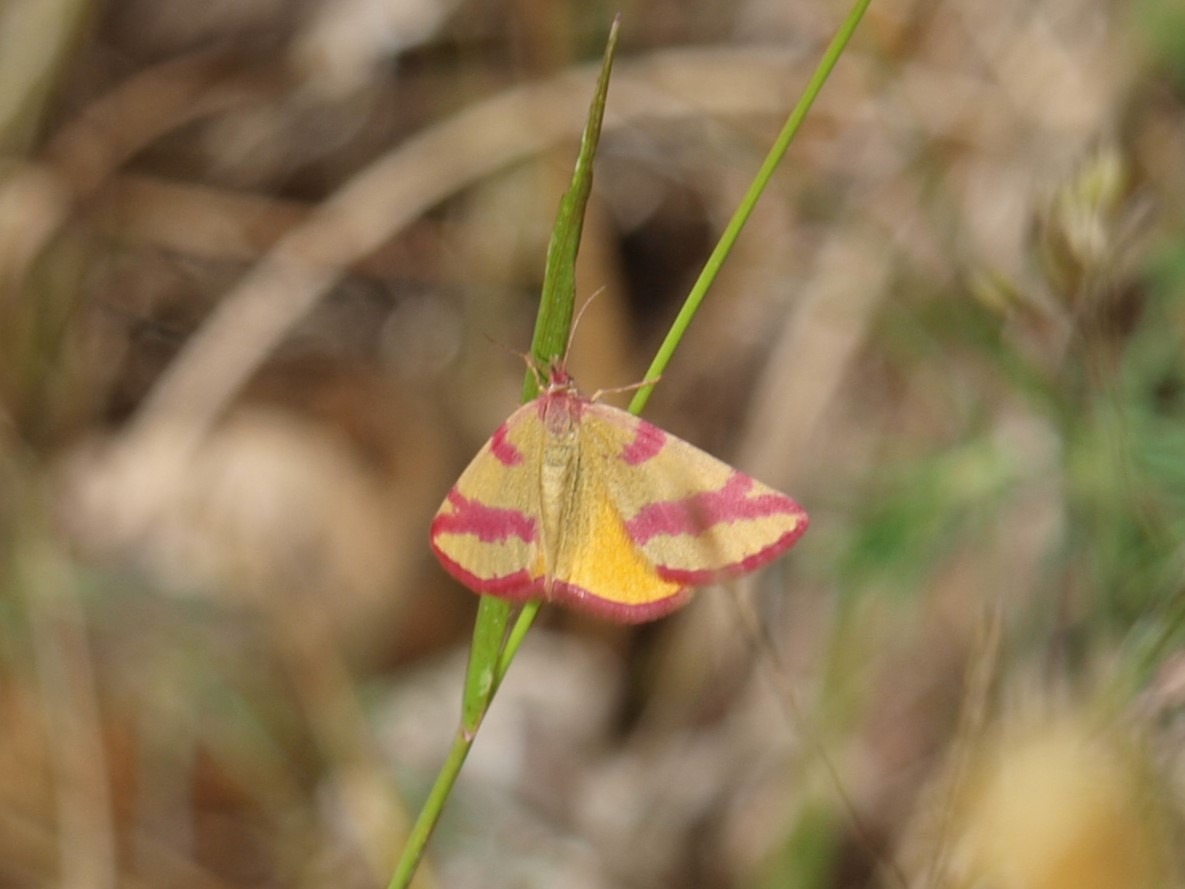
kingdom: Animalia
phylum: Arthropoda
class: Insecta
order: Lepidoptera
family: Geometridae
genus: Lythria
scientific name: Lythria cruentaria
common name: Purpurmåler
